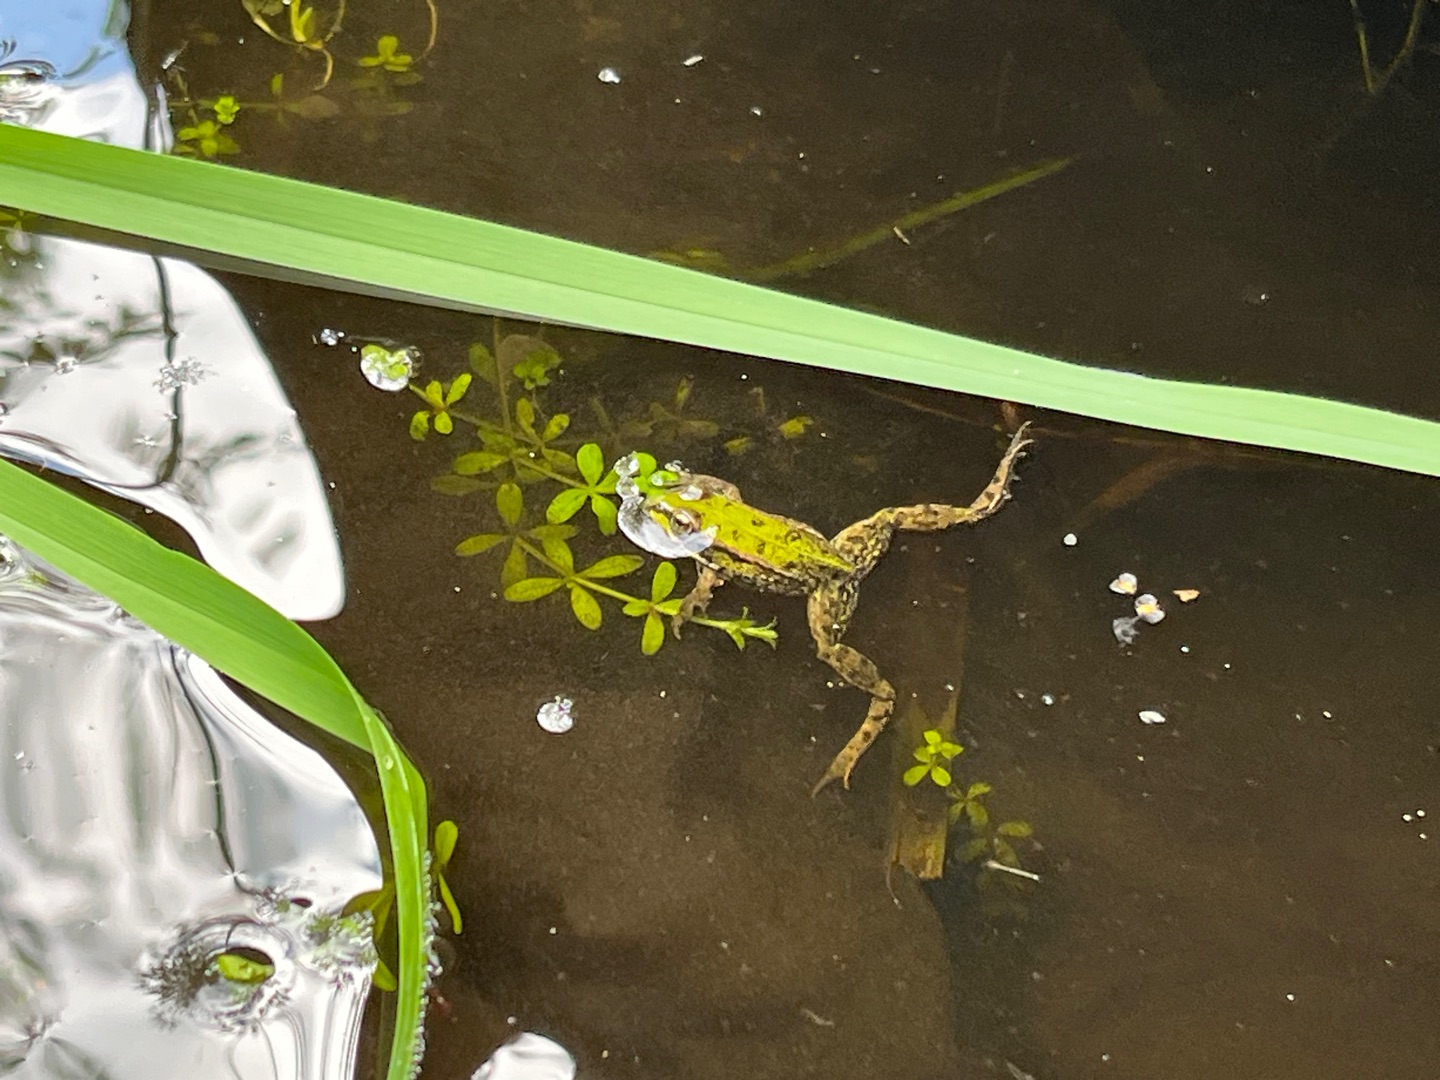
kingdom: Animalia
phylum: Chordata
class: Amphibia
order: Anura
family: Ranidae
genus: Pelophylax
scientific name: Pelophylax lessonae
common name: Grøn frø
